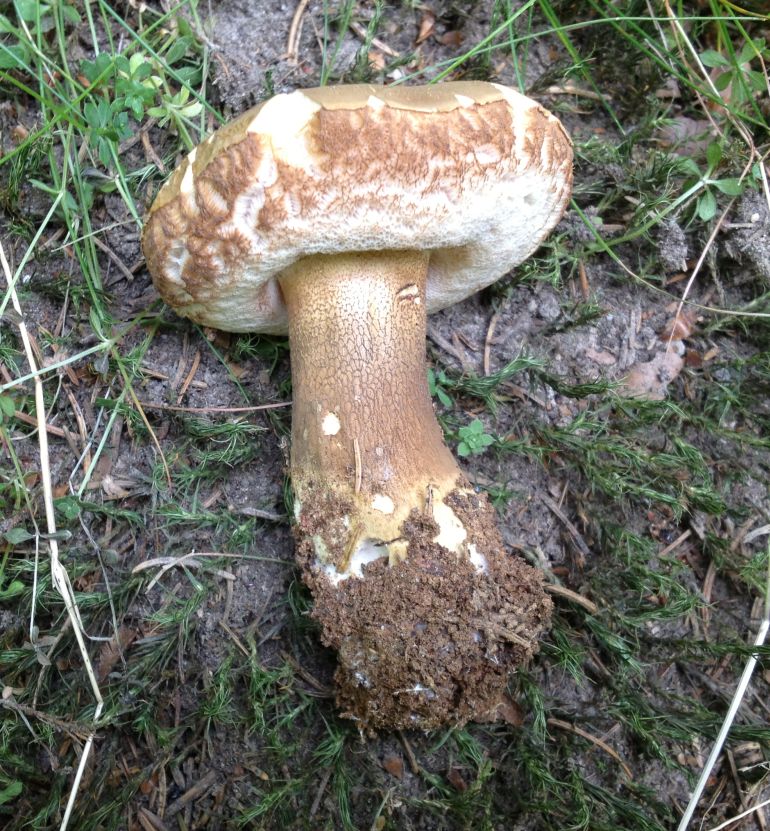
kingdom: Fungi
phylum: Basidiomycota
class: Agaricomycetes
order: Boletales
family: Boletaceae
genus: Tylopilus
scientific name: Tylopilus felleus
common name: galderørhat
